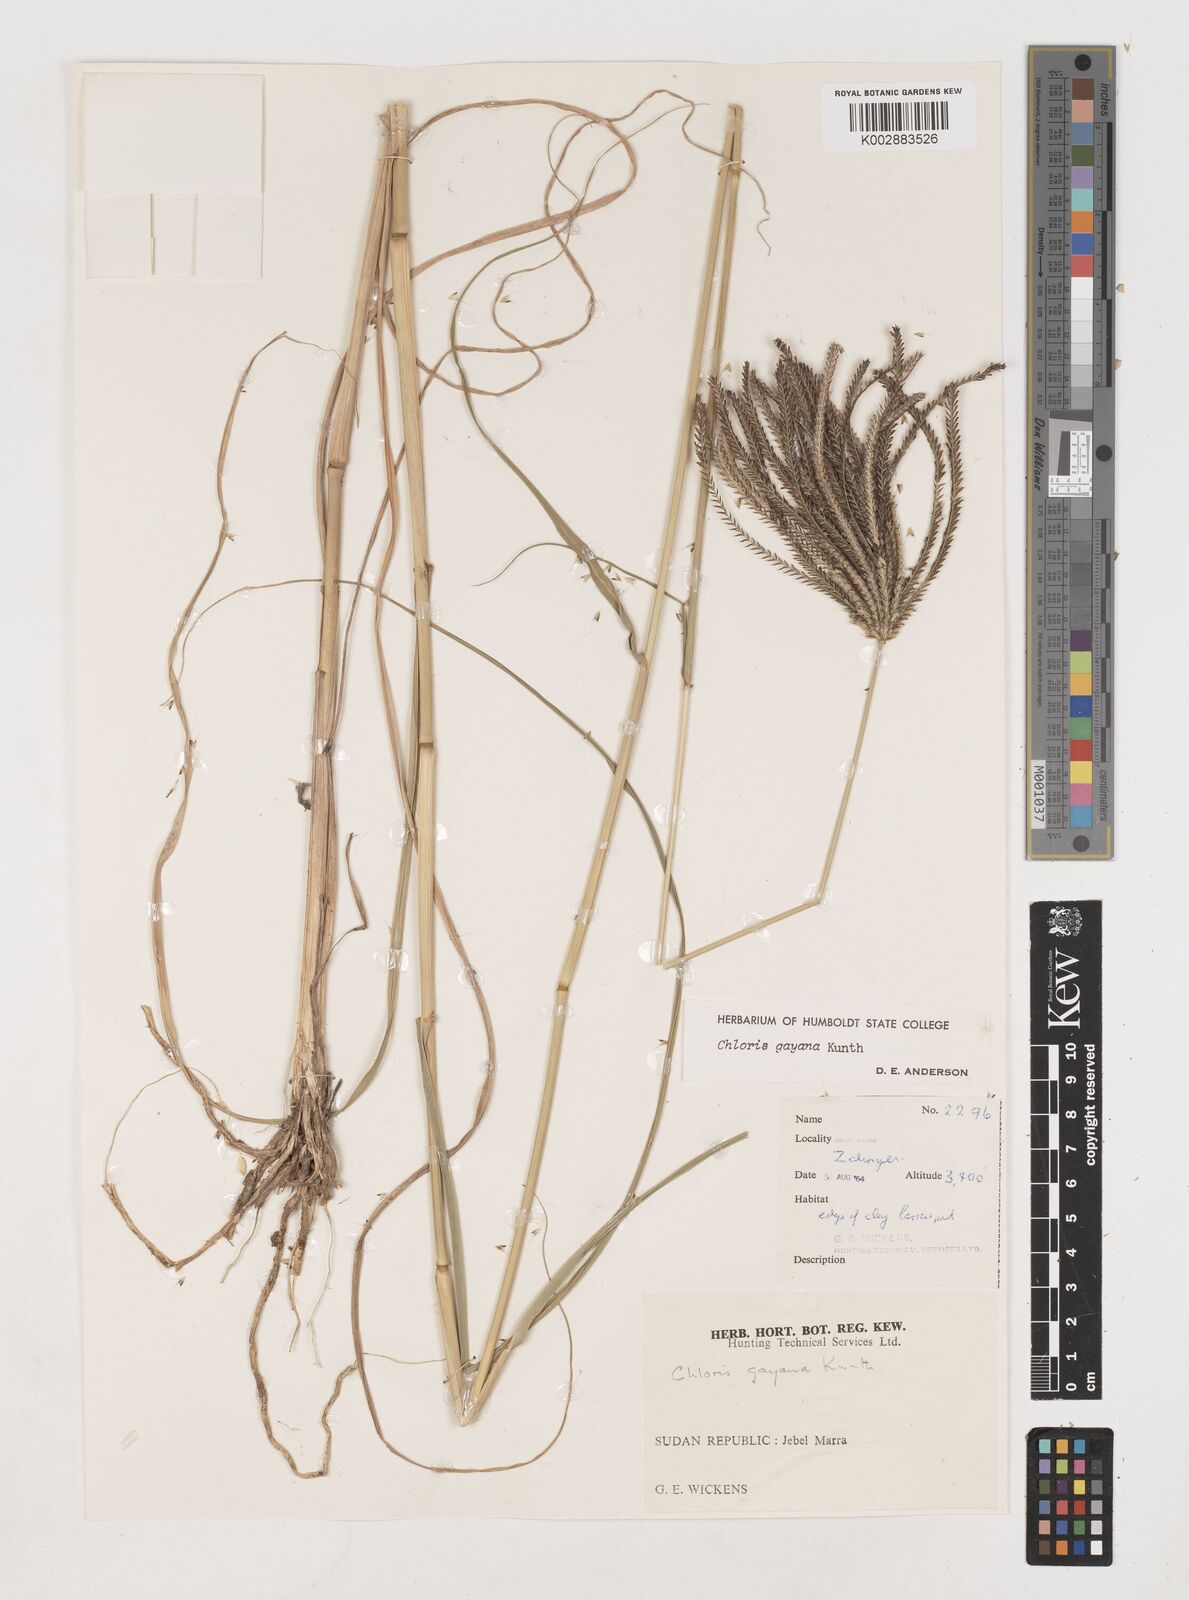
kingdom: Plantae
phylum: Tracheophyta
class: Liliopsida
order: Poales
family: Poaceae
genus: Chloris
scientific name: Chloris gayana
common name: Rhodes grass
